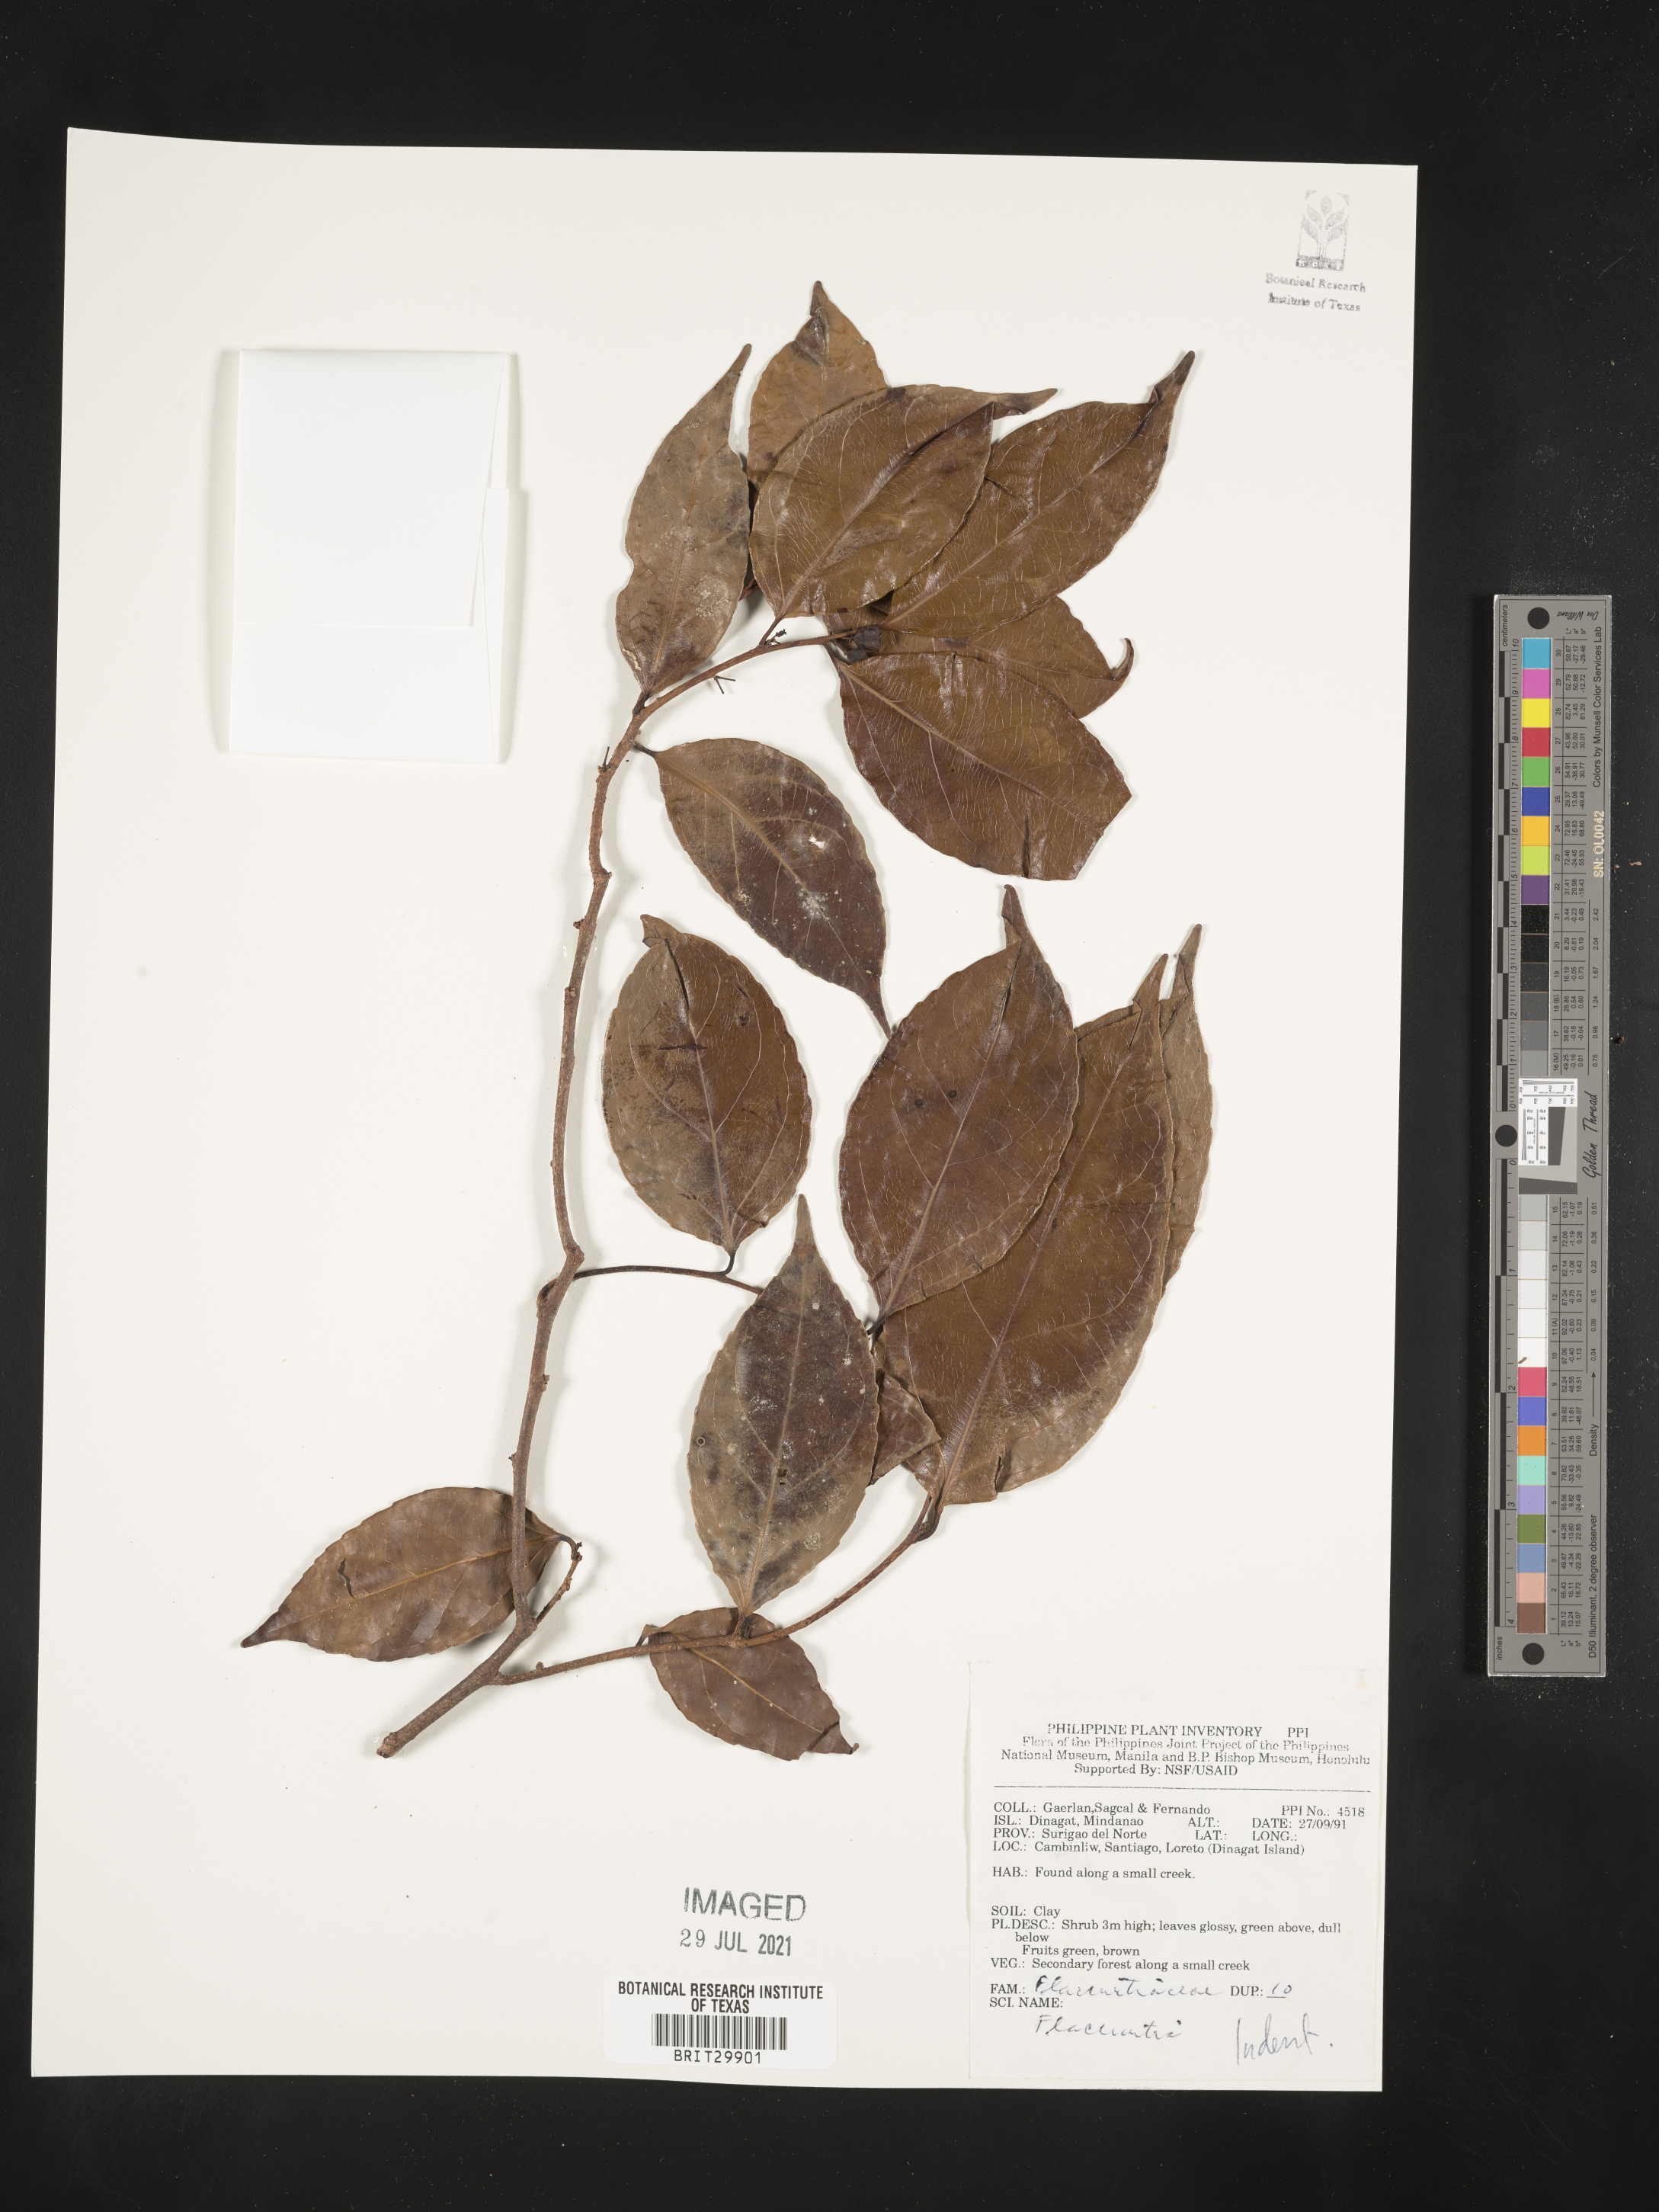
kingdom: Plantae
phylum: Tracheophyta
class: Magnoliopsida
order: Malpighiales
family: Salicaceae
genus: Flacourtia
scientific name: Flacourtia
